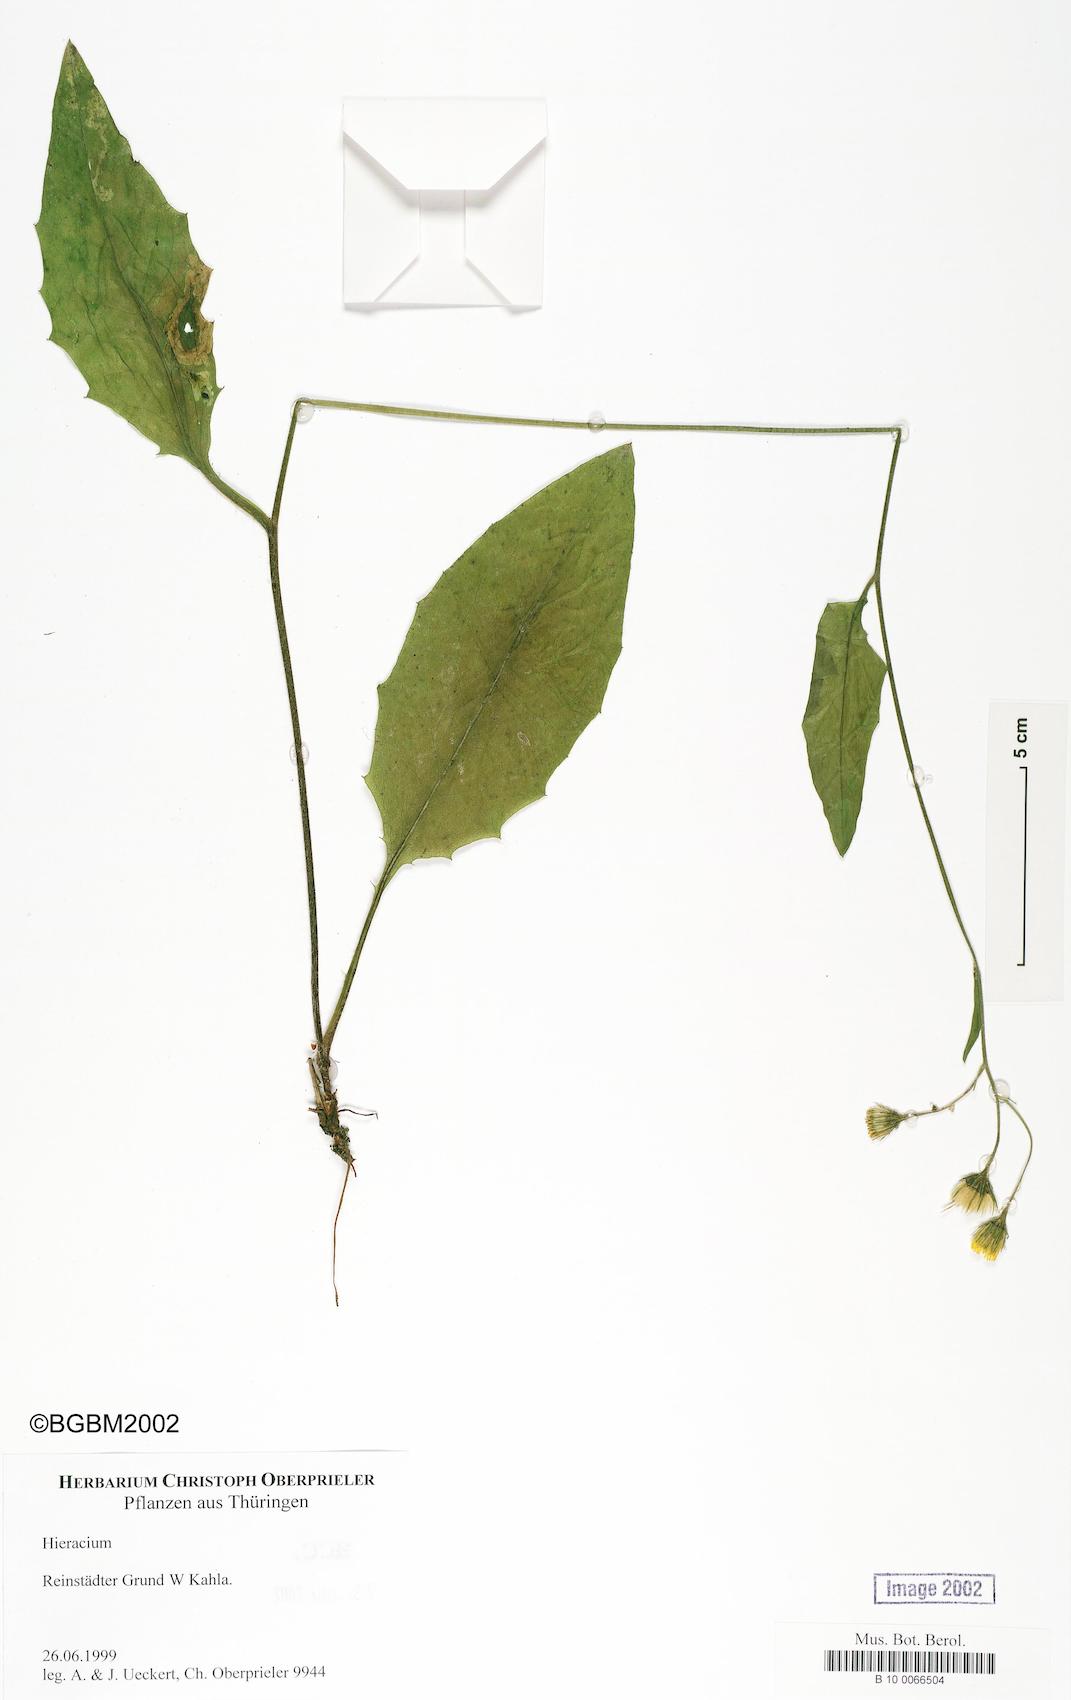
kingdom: Plantae
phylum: Tracheophyta
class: Magnoliopsida
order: Asterales
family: Asteraceae
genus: Hieracium
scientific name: Hieracium
